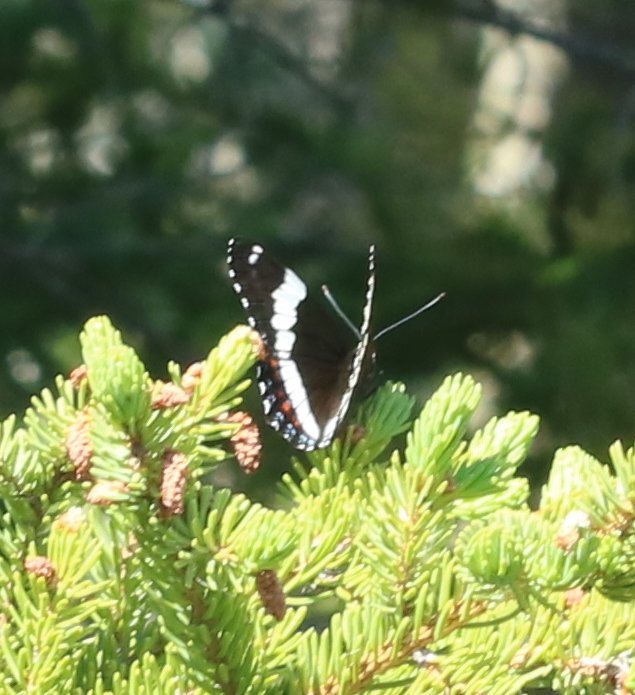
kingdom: Animalia
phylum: Arthropoda
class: Insecta
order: Lepidoptera
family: Nymphalidae
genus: Limenitis
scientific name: Limenitis arthemis
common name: Red-spotted Admiral
